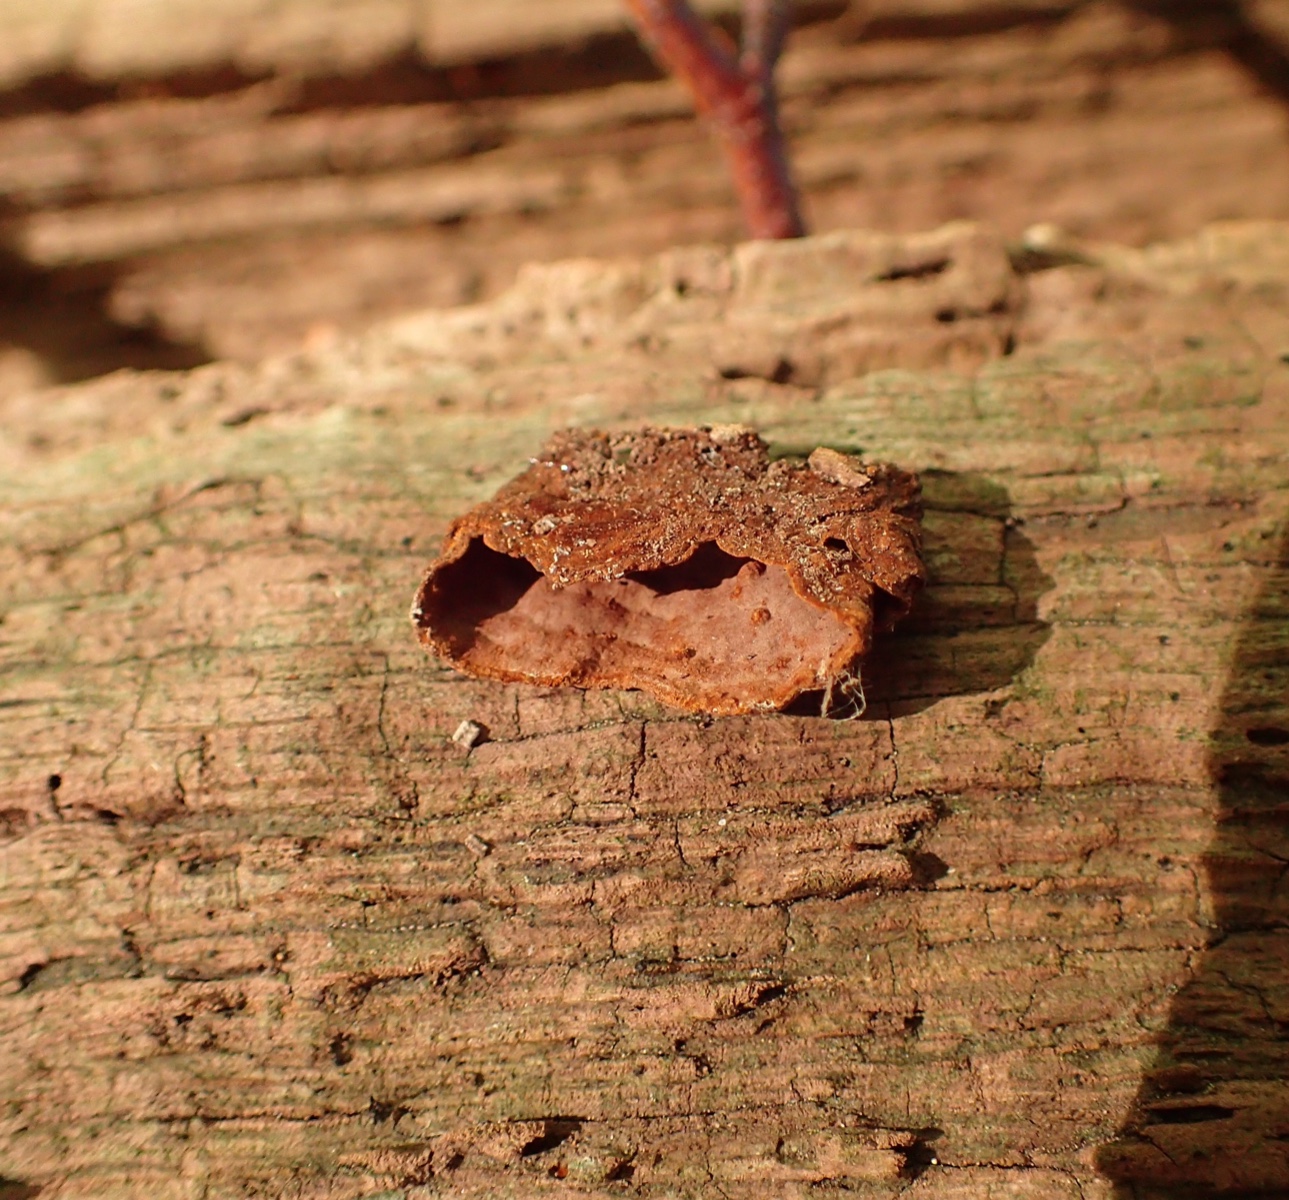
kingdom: Fungi
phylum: Basidiomycota
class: Agaricomycetes
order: Hymenochaetales
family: Hymenochaetaceae
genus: Hymenochaete
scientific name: Hymenochaete rubiginosa
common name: stiv ruslædersvamp
